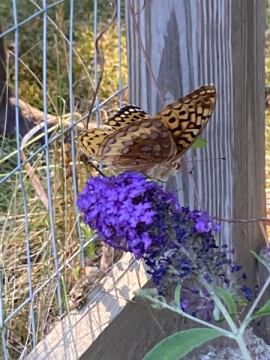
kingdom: Animalia
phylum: Arthropoda
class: Insecta
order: Lepidoptera
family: Nymphalidae
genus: Speyeria
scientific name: Speyeria cybele
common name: Great Spangled Fritillary
